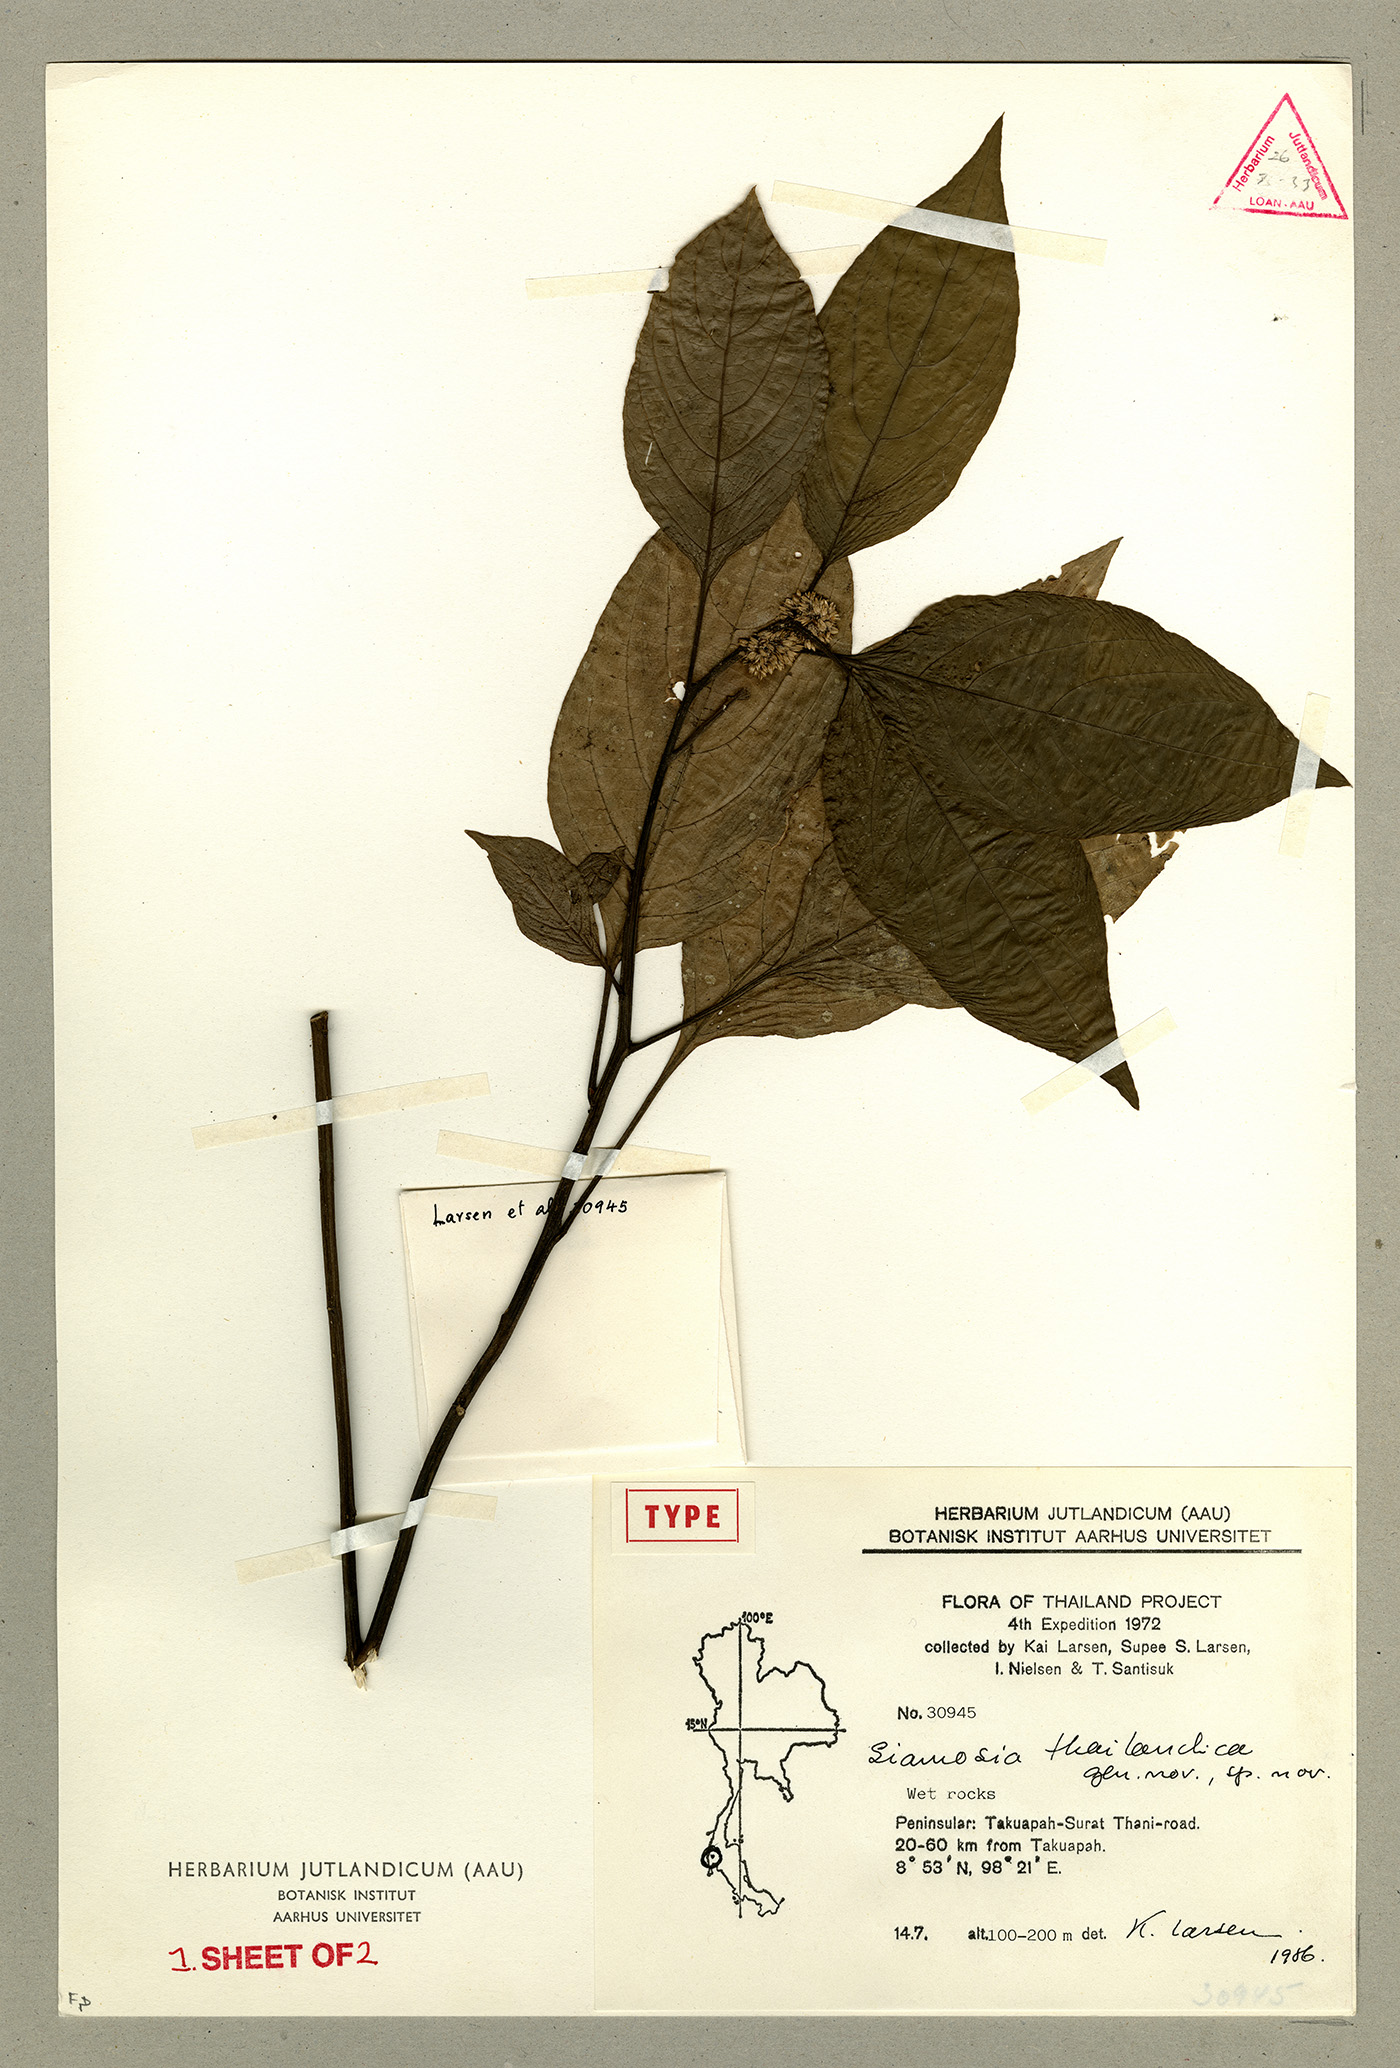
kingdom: Plantae
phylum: Tracheophyta
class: Magnoliopsida
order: Caryophyllales
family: Amaranthaceae
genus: Siamosia
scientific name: Siamosia thailandica
